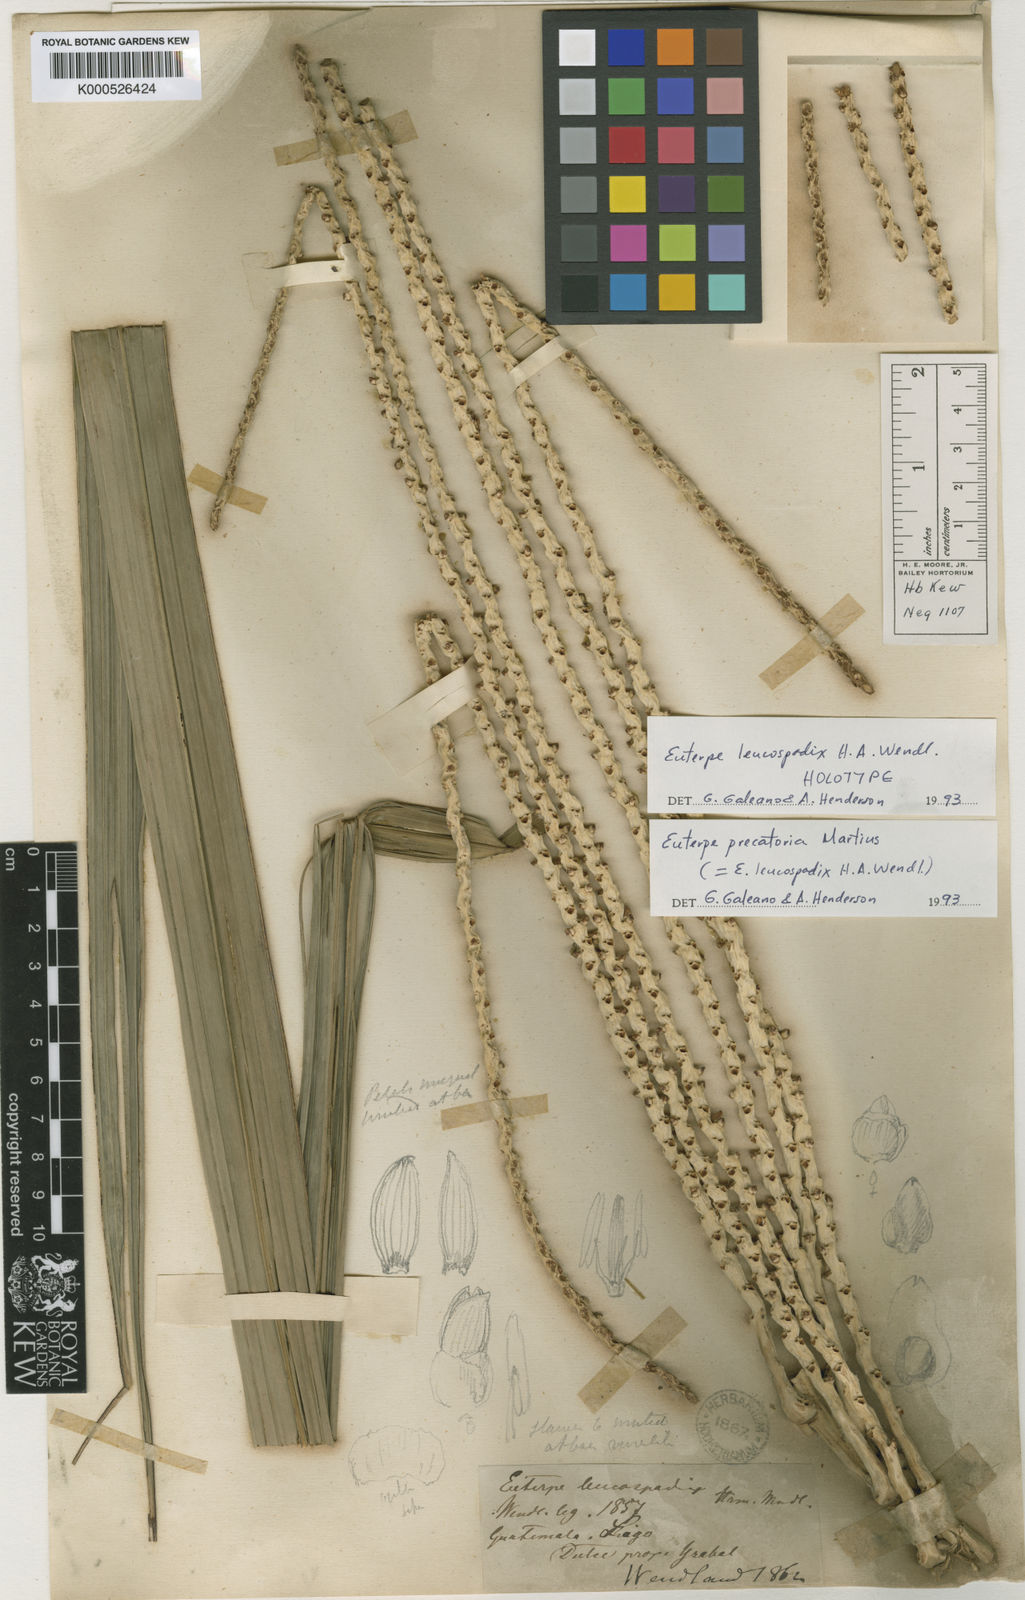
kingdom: Plantae
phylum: Tracheophyta
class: Liliopsida
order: Arecales
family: Arecaceae
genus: Euterpe
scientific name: Euterpe precatoria
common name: Mountain-cabbage
